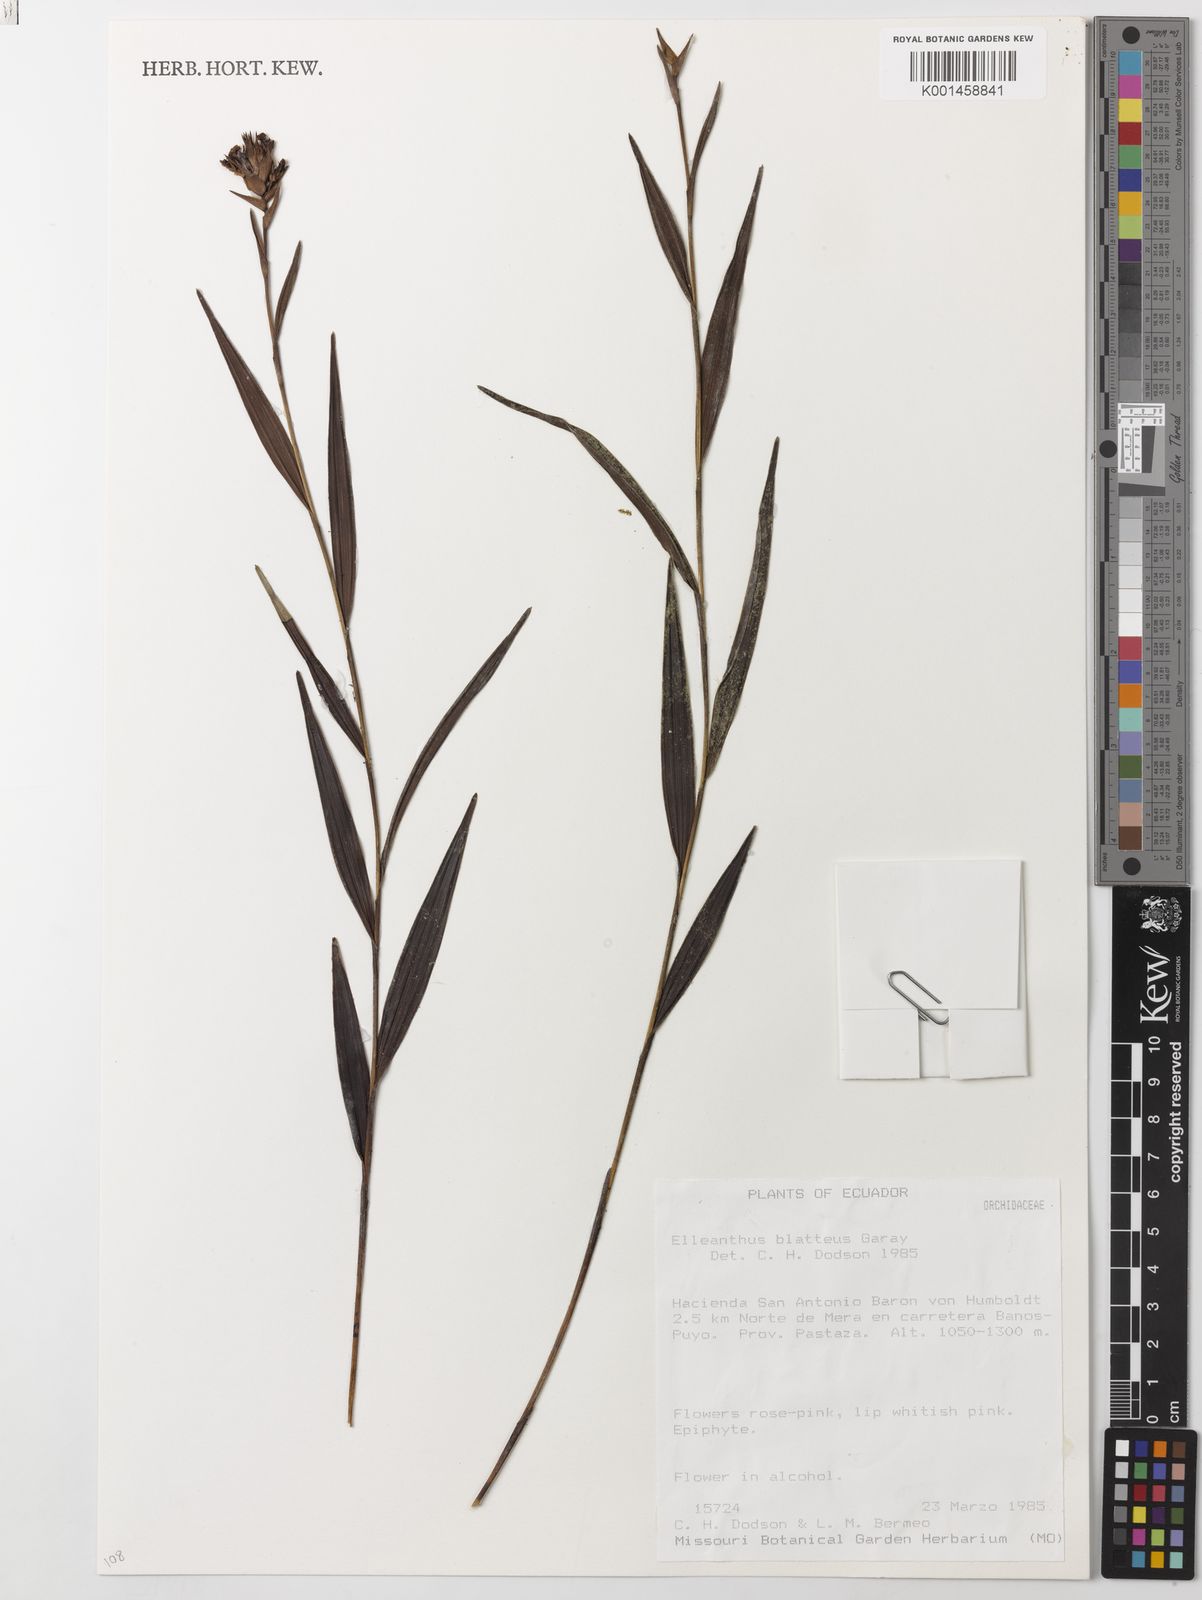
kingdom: Plantae
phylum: Tracheophyta
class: Liliopsida
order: Asparagales
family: Orchidaceae
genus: Elleanthus
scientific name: Elleanthus blatteus
